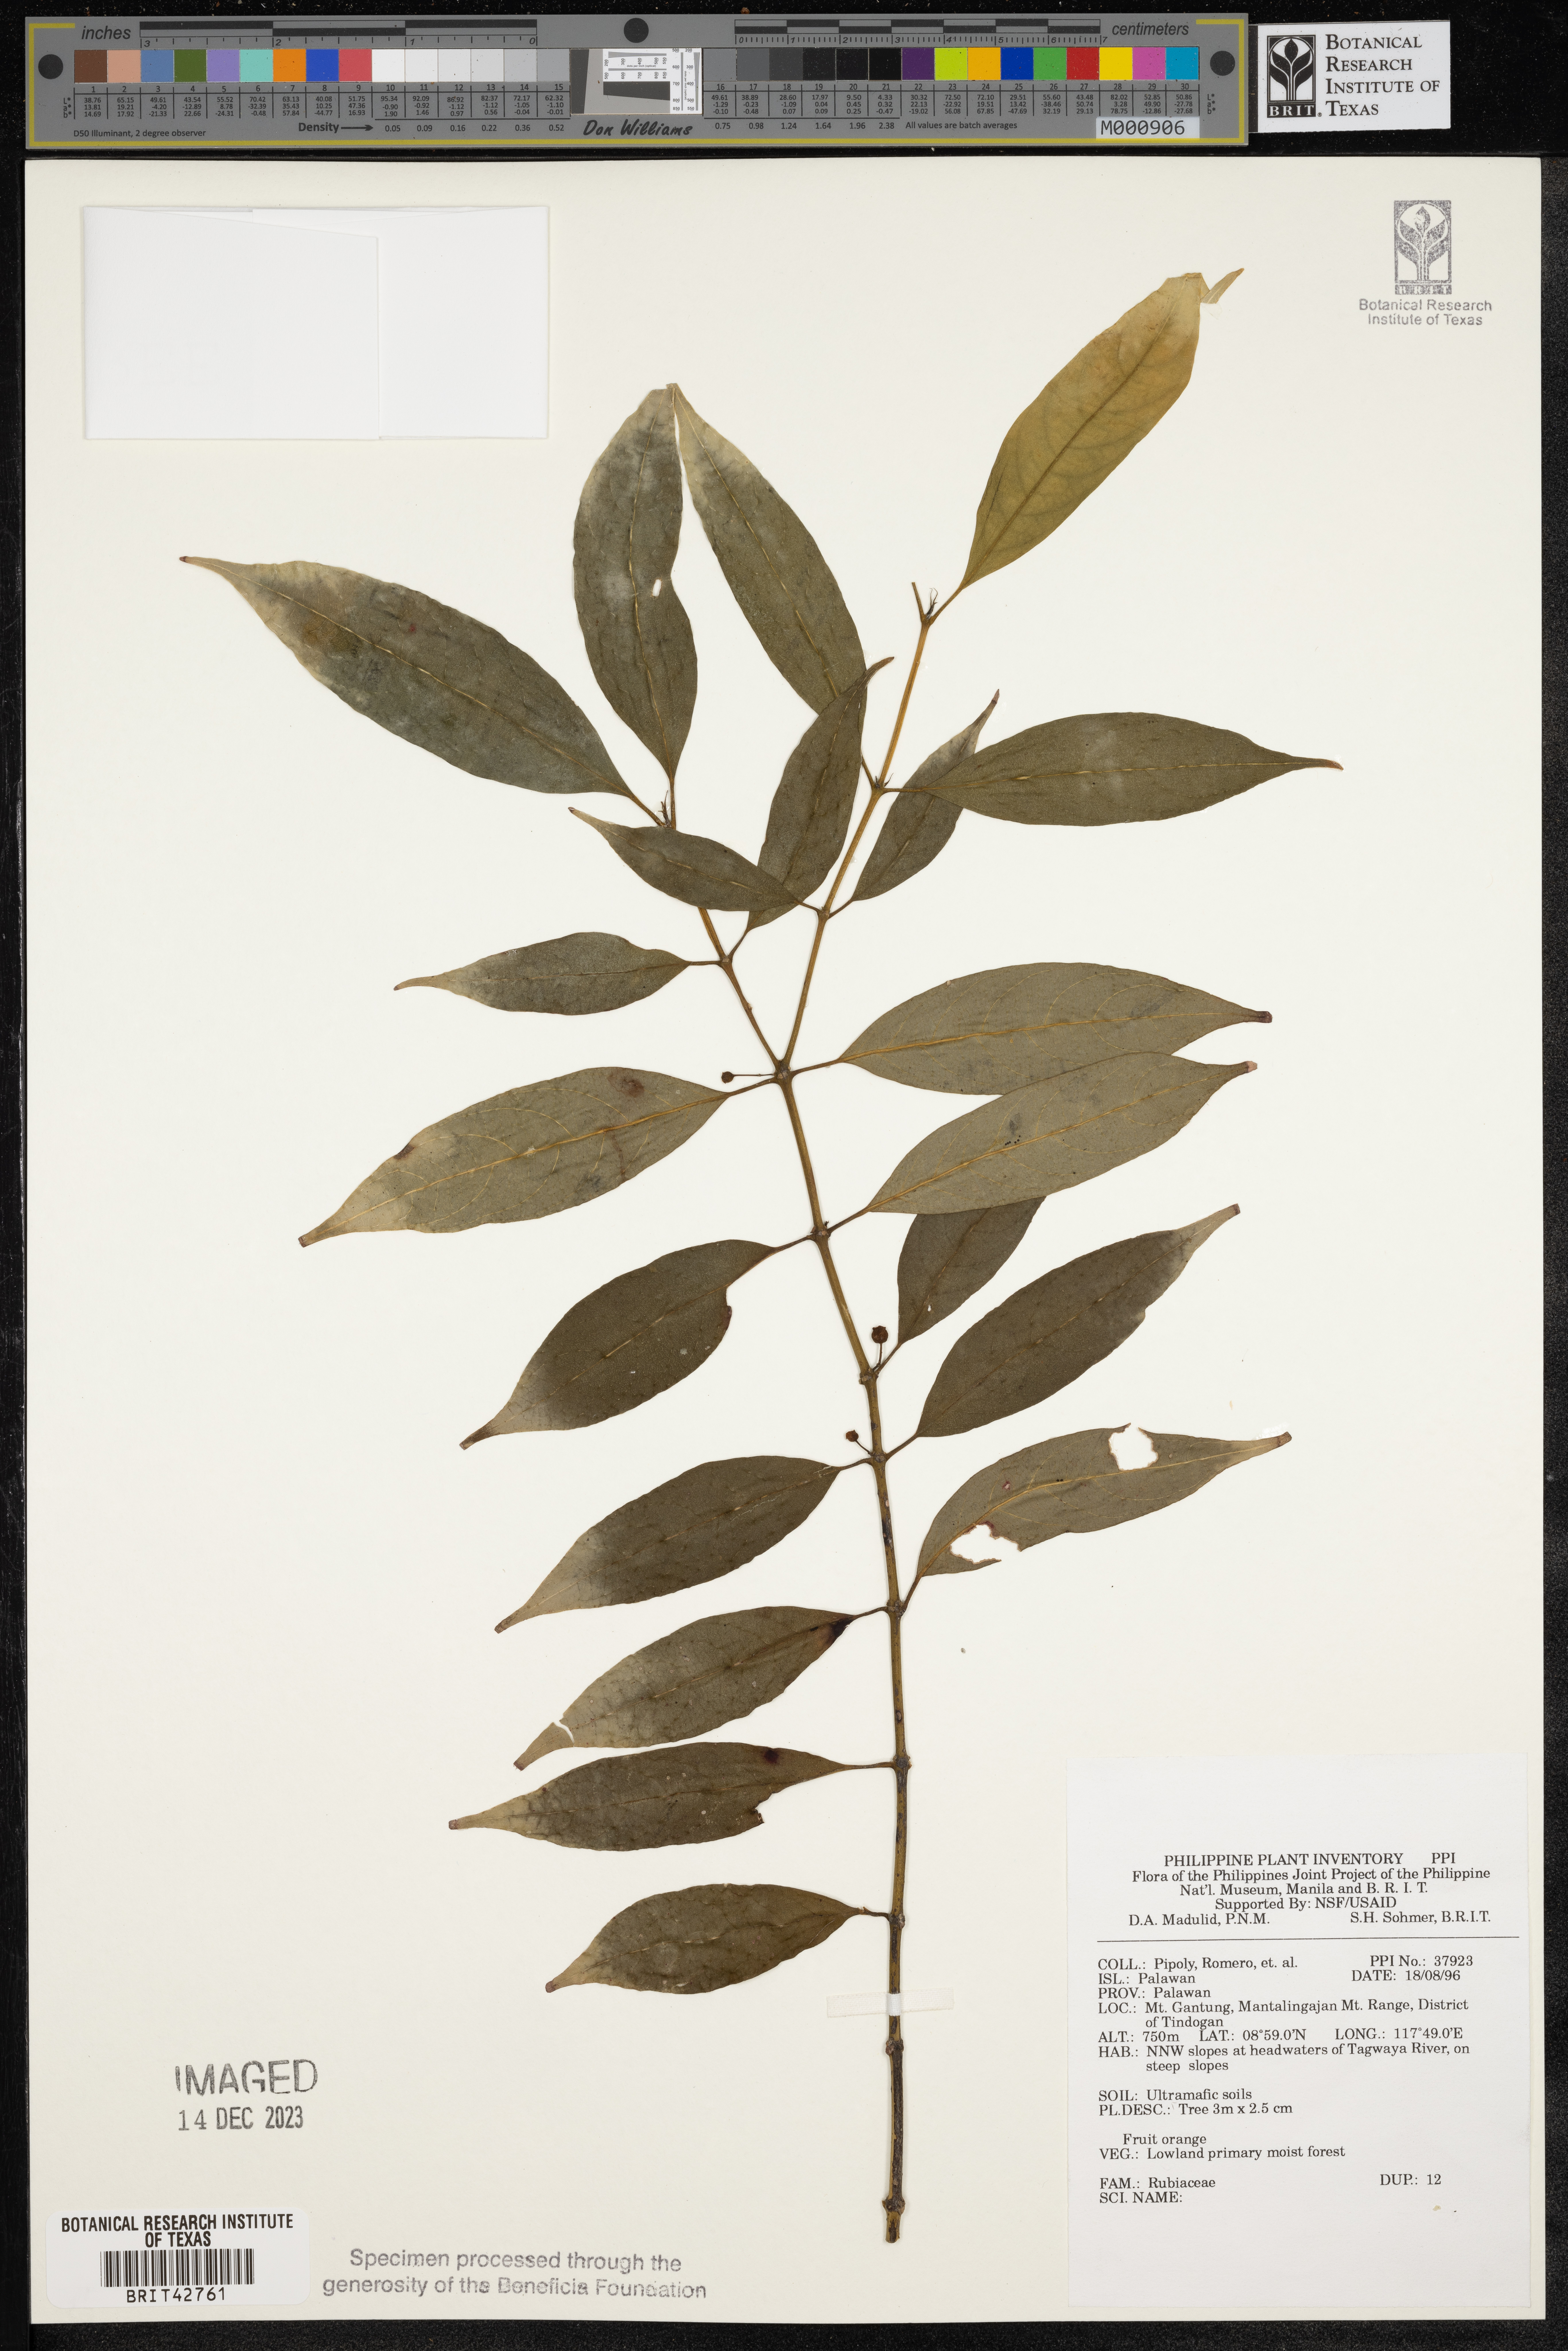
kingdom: Plantae
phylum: Tracheophyta
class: Magnoliopsida
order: Gentianales
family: Rubiaceae
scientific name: Rubiaceae
